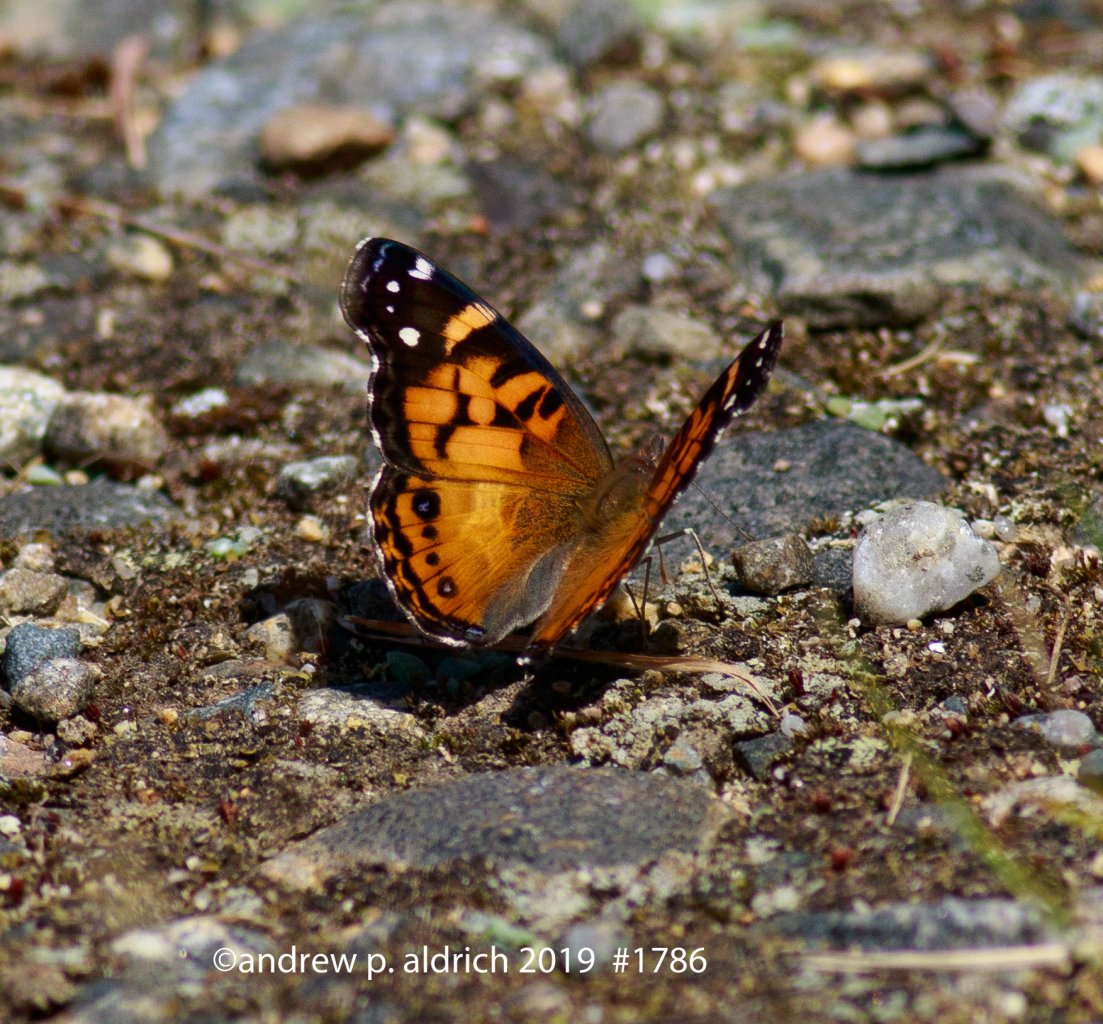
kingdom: Animalia
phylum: Arthropoda
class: Insecta
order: Lepidoptera
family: Nymphalidae
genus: Vanessa
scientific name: Vanessa virginiensis
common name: American Lady
